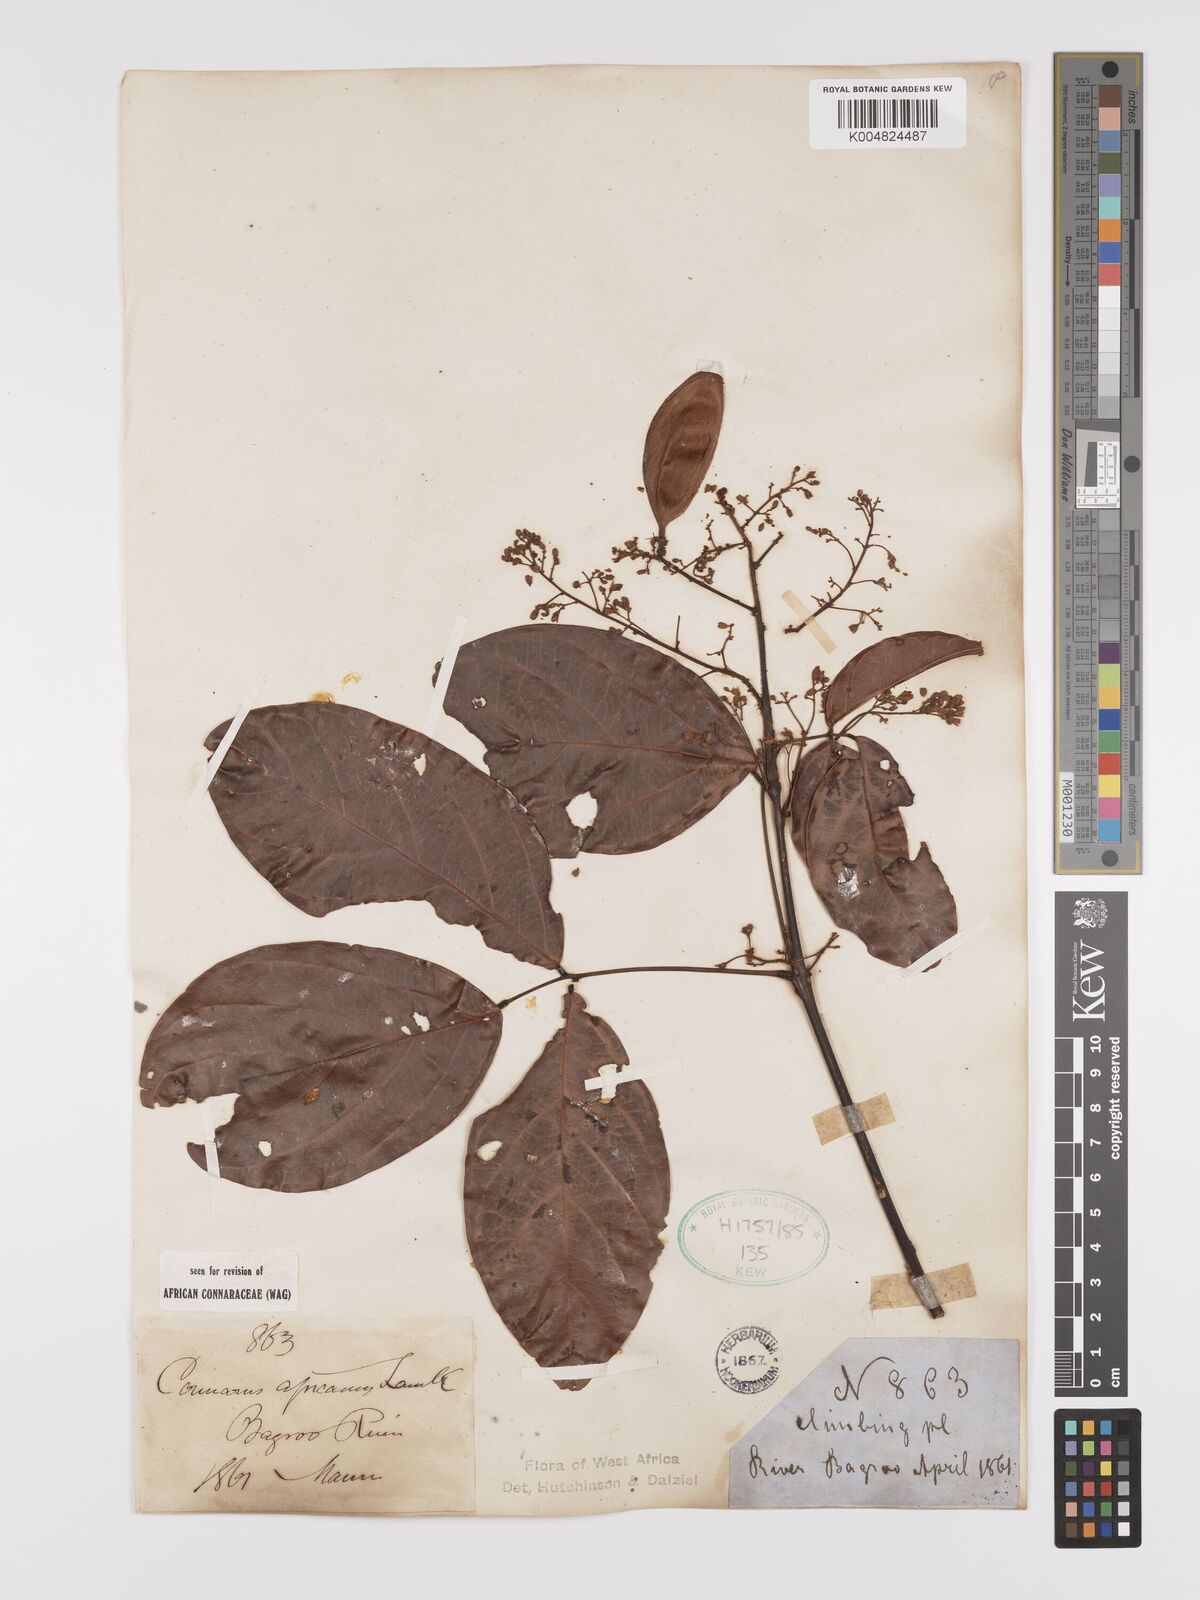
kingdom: Plantae
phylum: Tracheophyta
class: Magnoliopsida
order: Oxalidales
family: Connaraceae
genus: Connarus
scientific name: Connarus africanus
